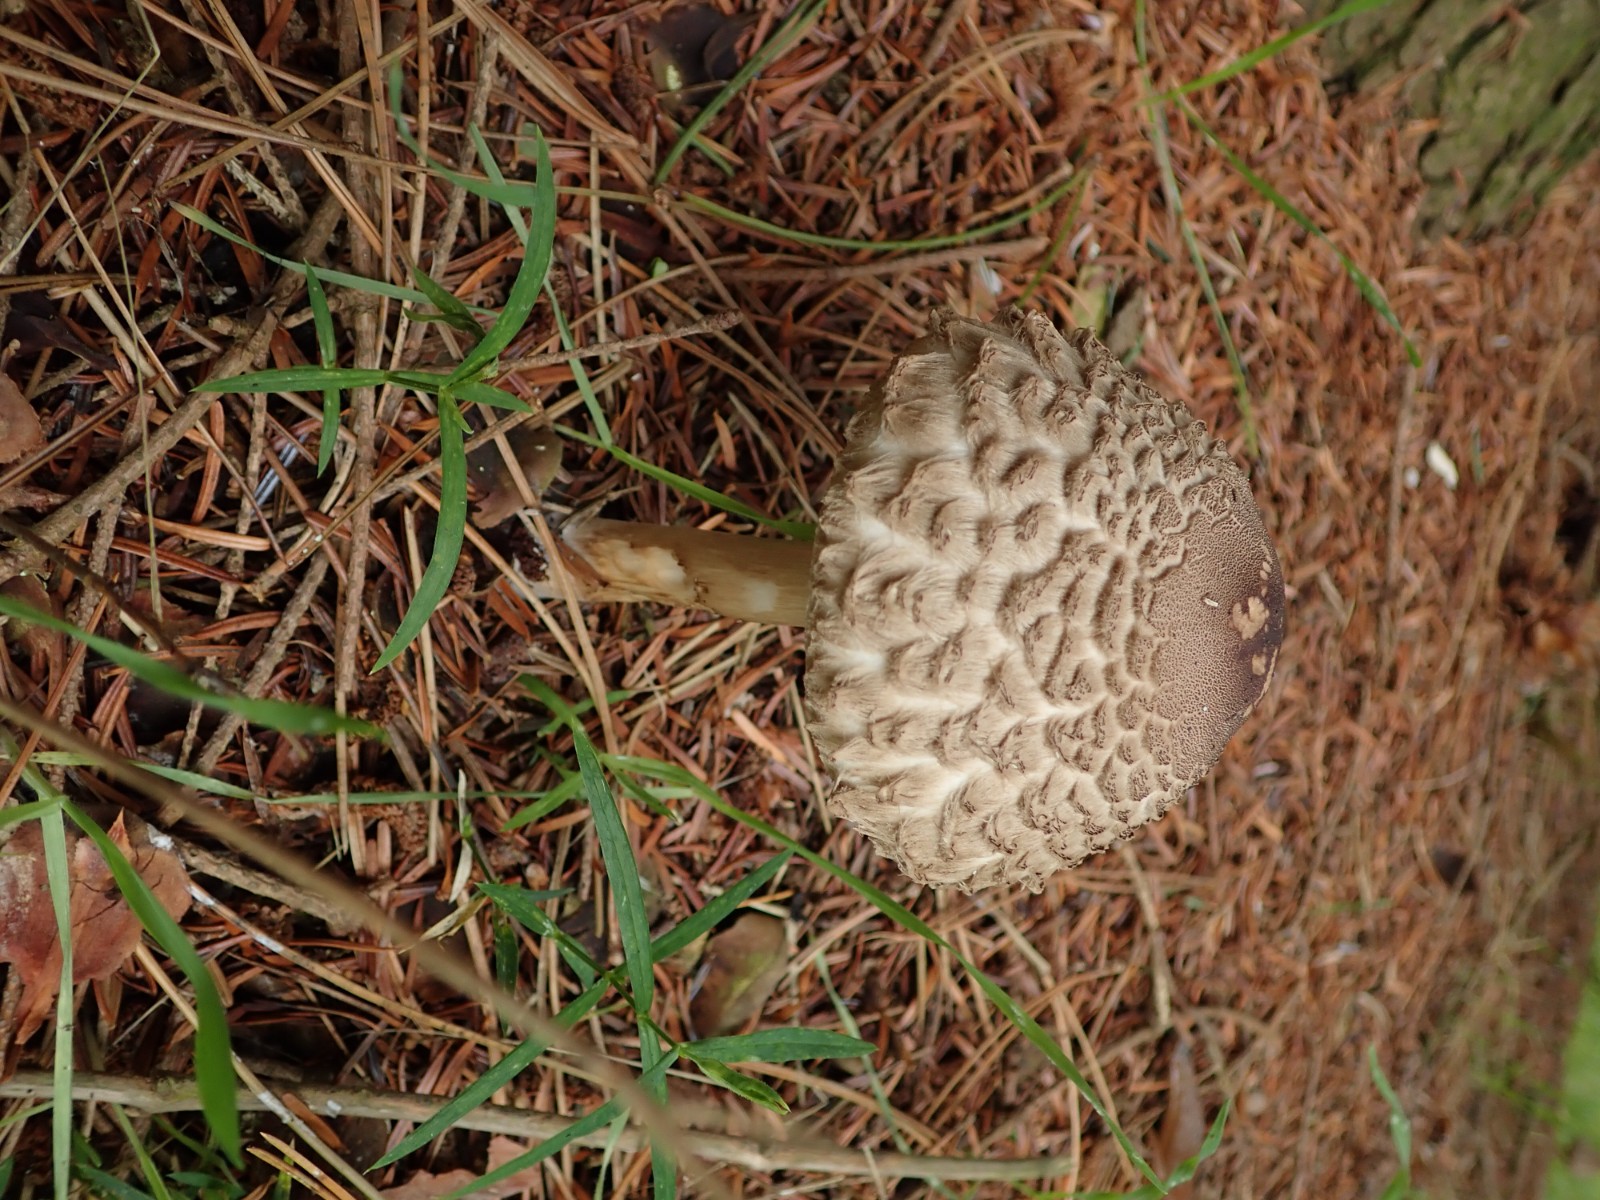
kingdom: Fungi
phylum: Basidiomycota
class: Agaricomycetes
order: Agaricales
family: Agaricaceae
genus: Chlorophyllum
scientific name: Chlorophyllum olivieri
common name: almindelig rabarberhat
